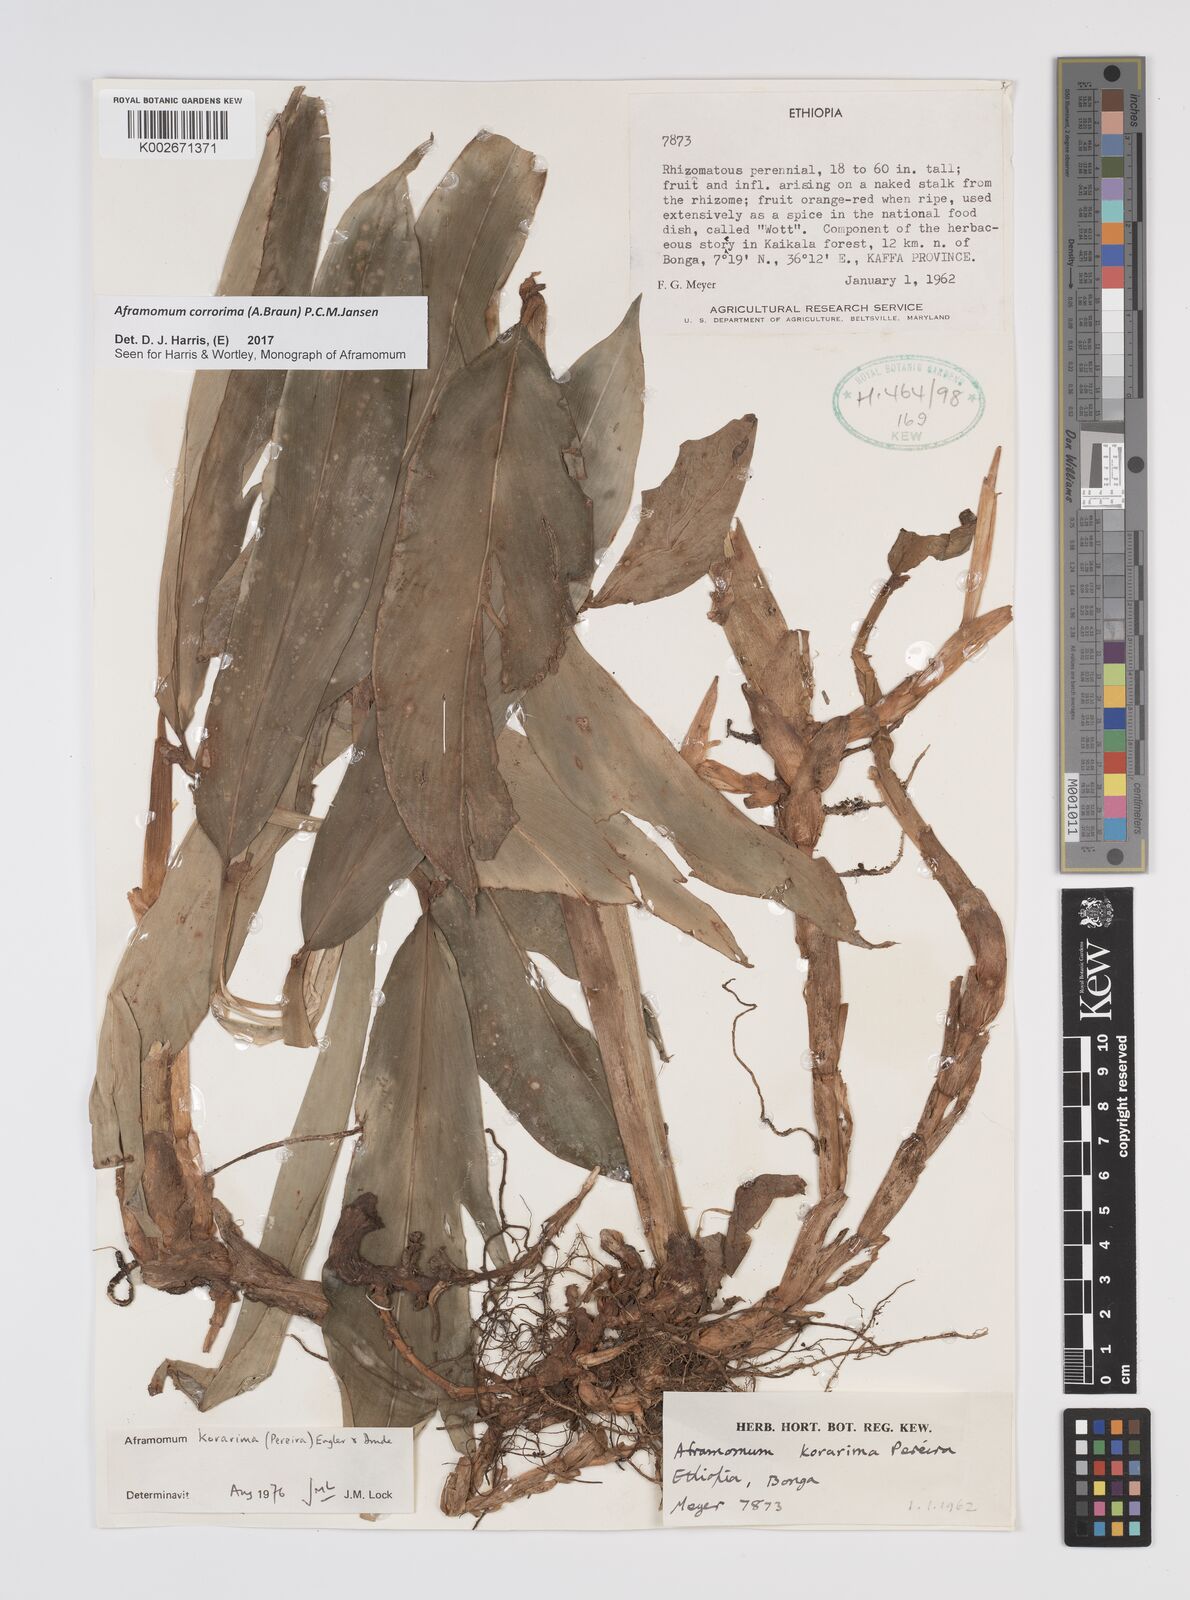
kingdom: Plantae
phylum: Tracheophyta
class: Liliopsida
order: Zingiberales
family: Zingiberaceae
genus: Aframomum
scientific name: Aframomum corrorima
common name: Ethiopian cardamom
